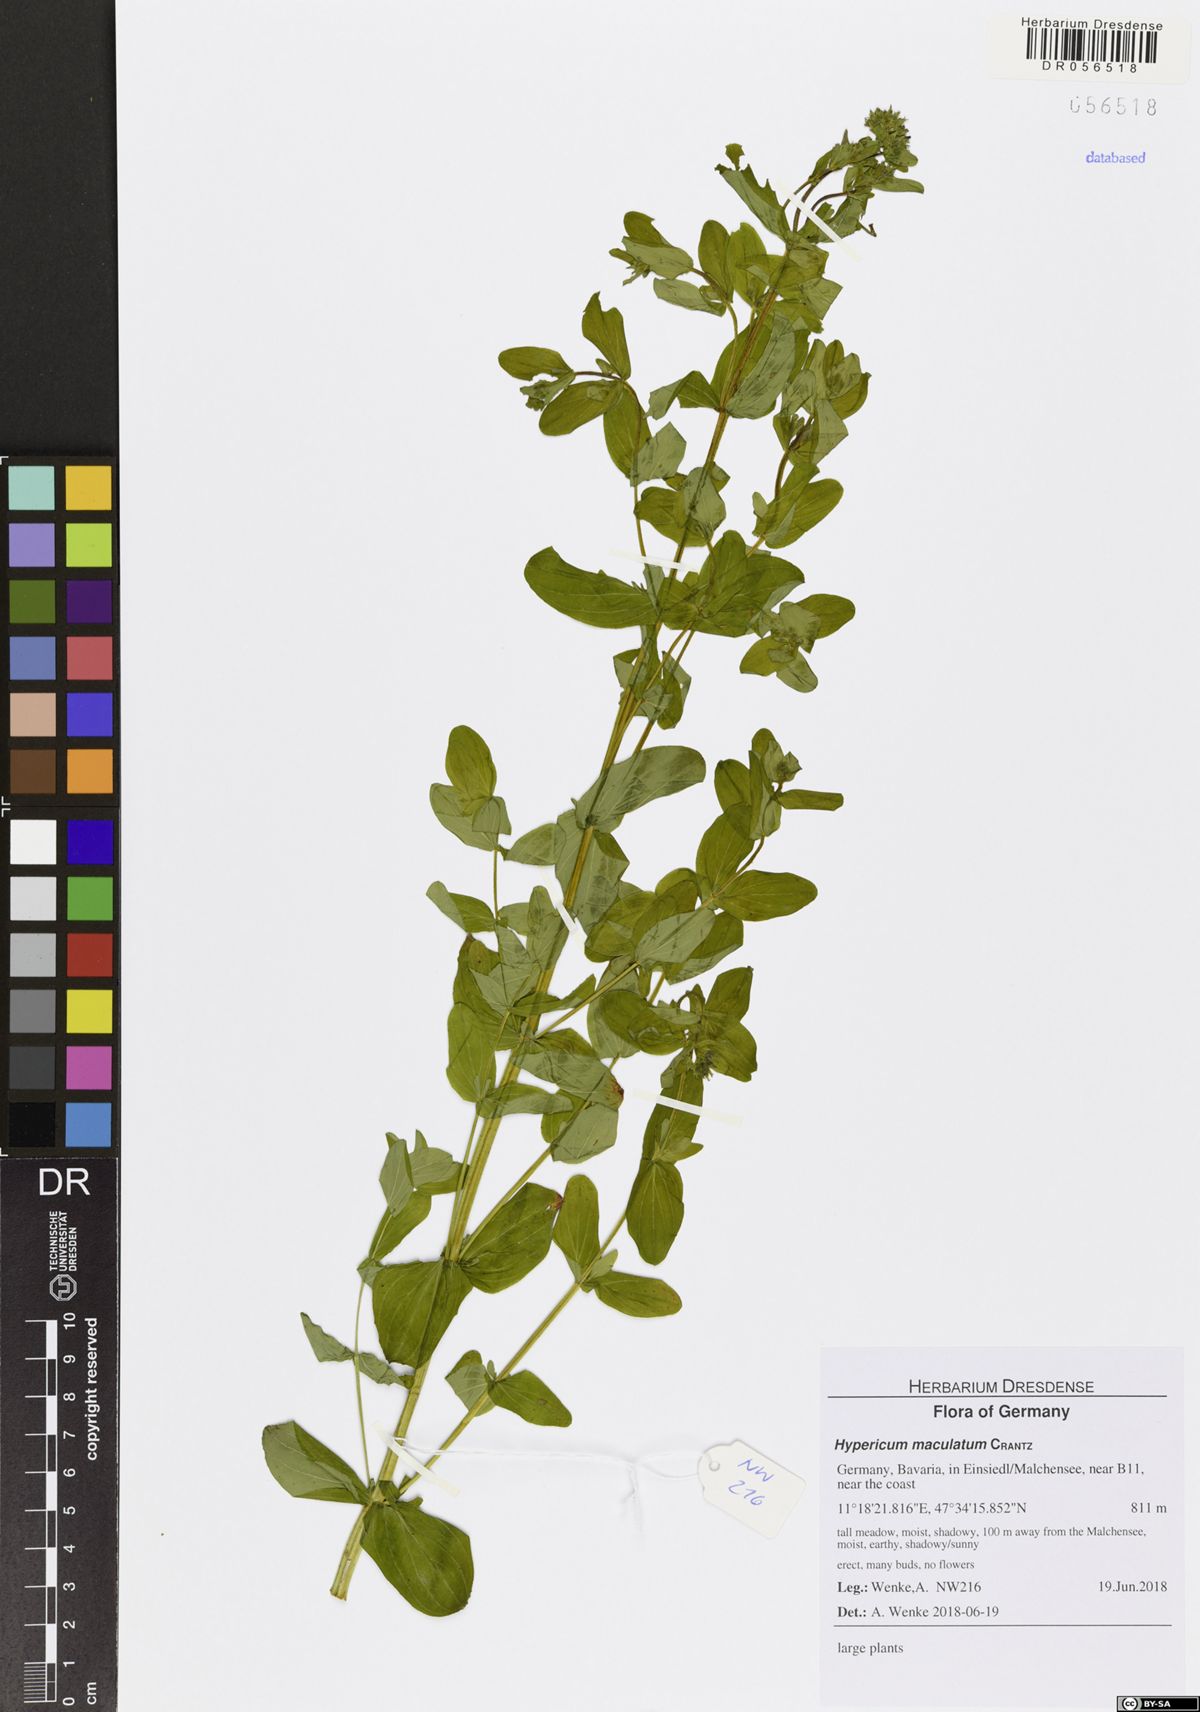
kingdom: Plantae
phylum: Tracheophyta
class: Magnoliopsida
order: Malpighiales
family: Hypericaceae
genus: Hypericum
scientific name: Hypericum maculatum
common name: Imperforate st. john's-wort
